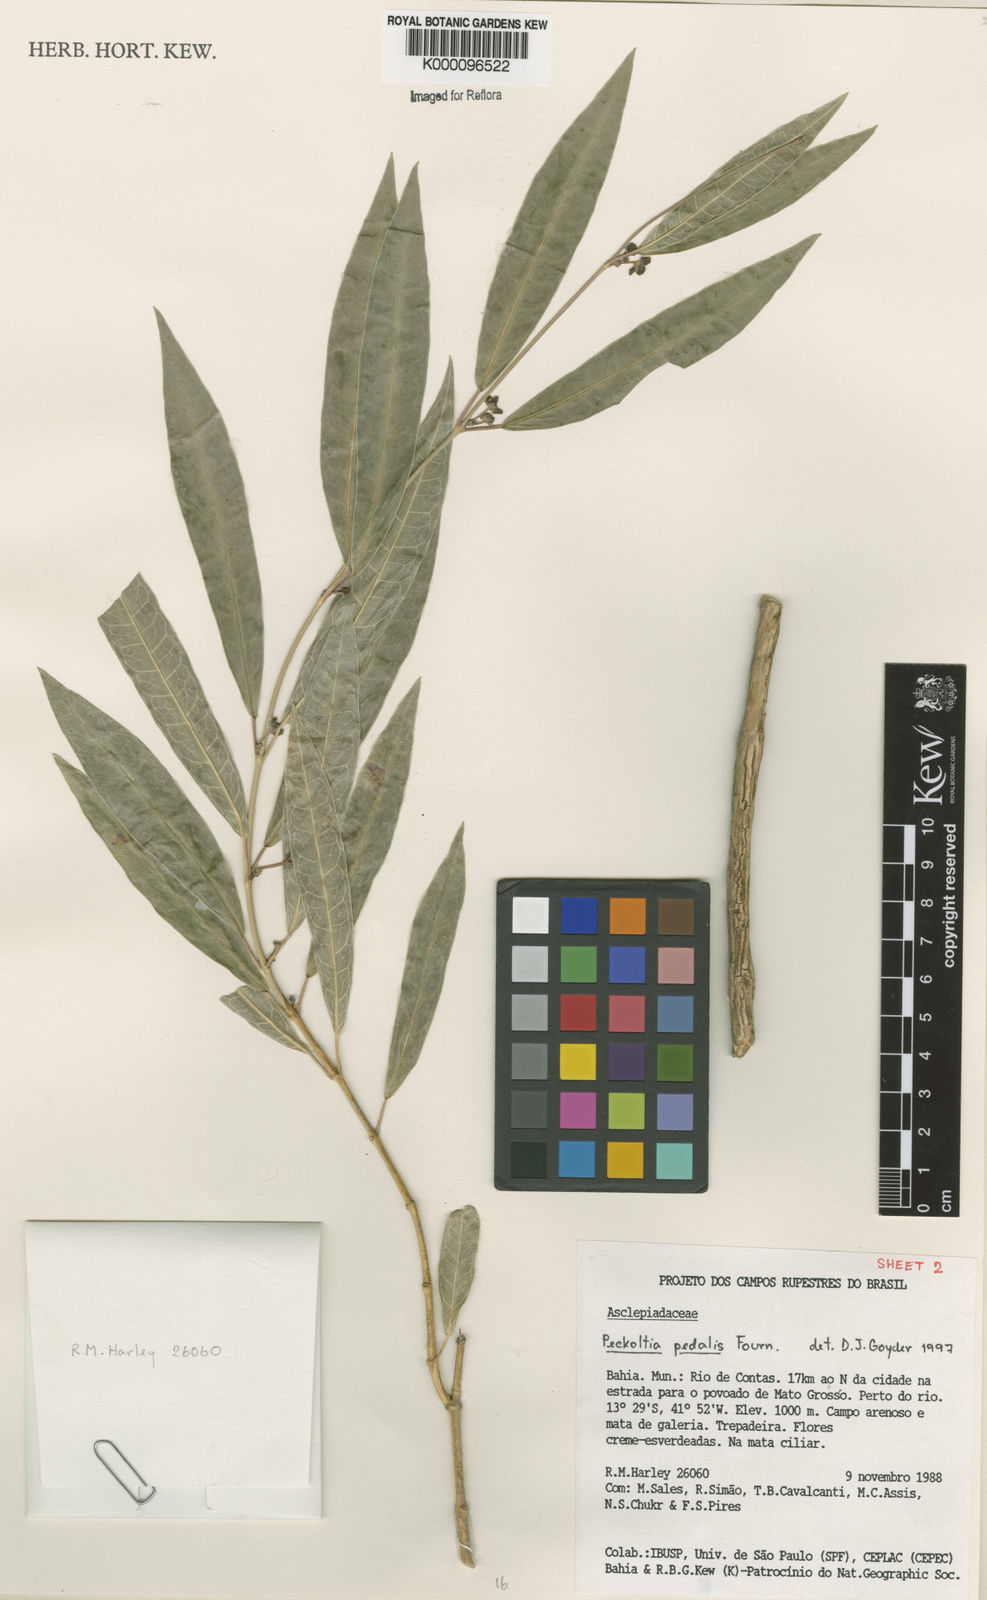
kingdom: Plantae
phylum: Tracheophyta
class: Magnoliopsida
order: Gentianales
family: Apocynaceae
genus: Matelea
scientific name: Matelea pedalis
